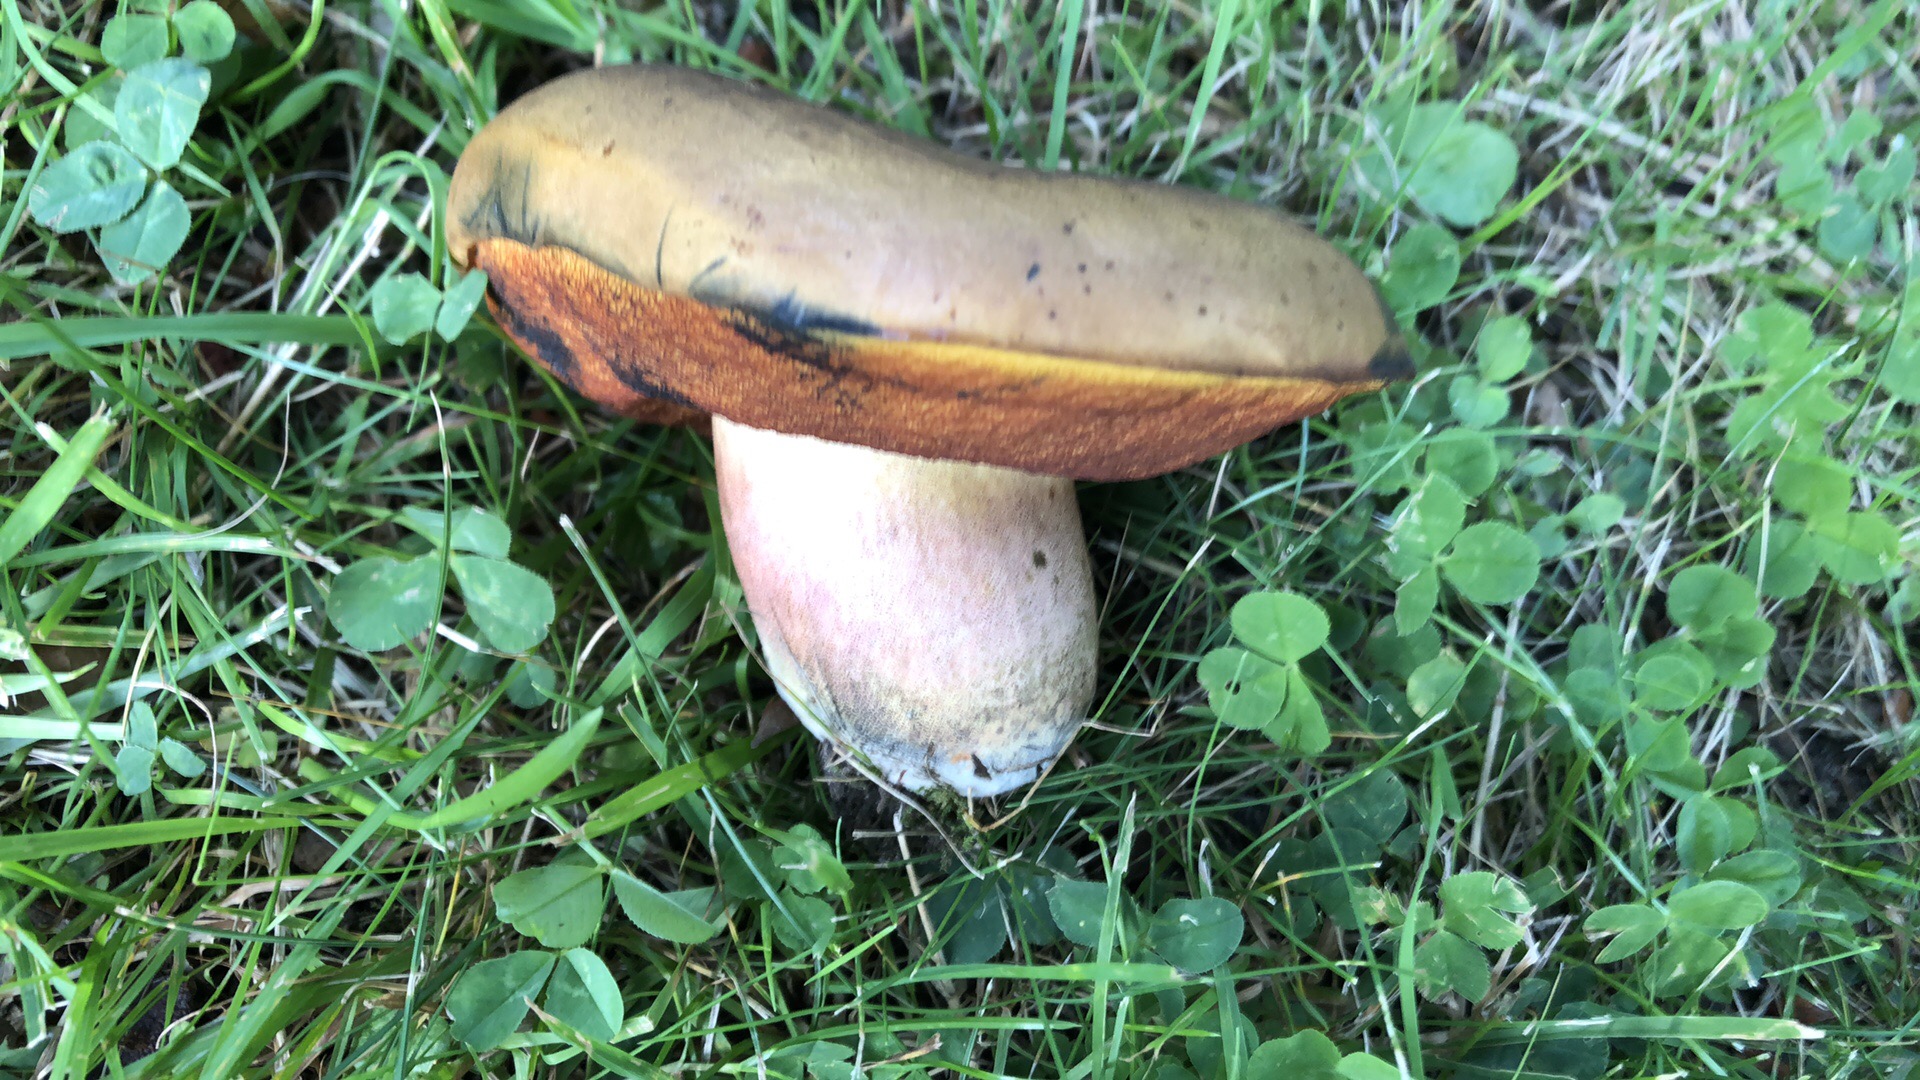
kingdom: Fungi
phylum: Basidiomycota
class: Agaricomycetes
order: Boletales
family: Boletaceae
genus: Neoboletus
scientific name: Neoboletus xanthopus
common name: finprikket indigorørhat
